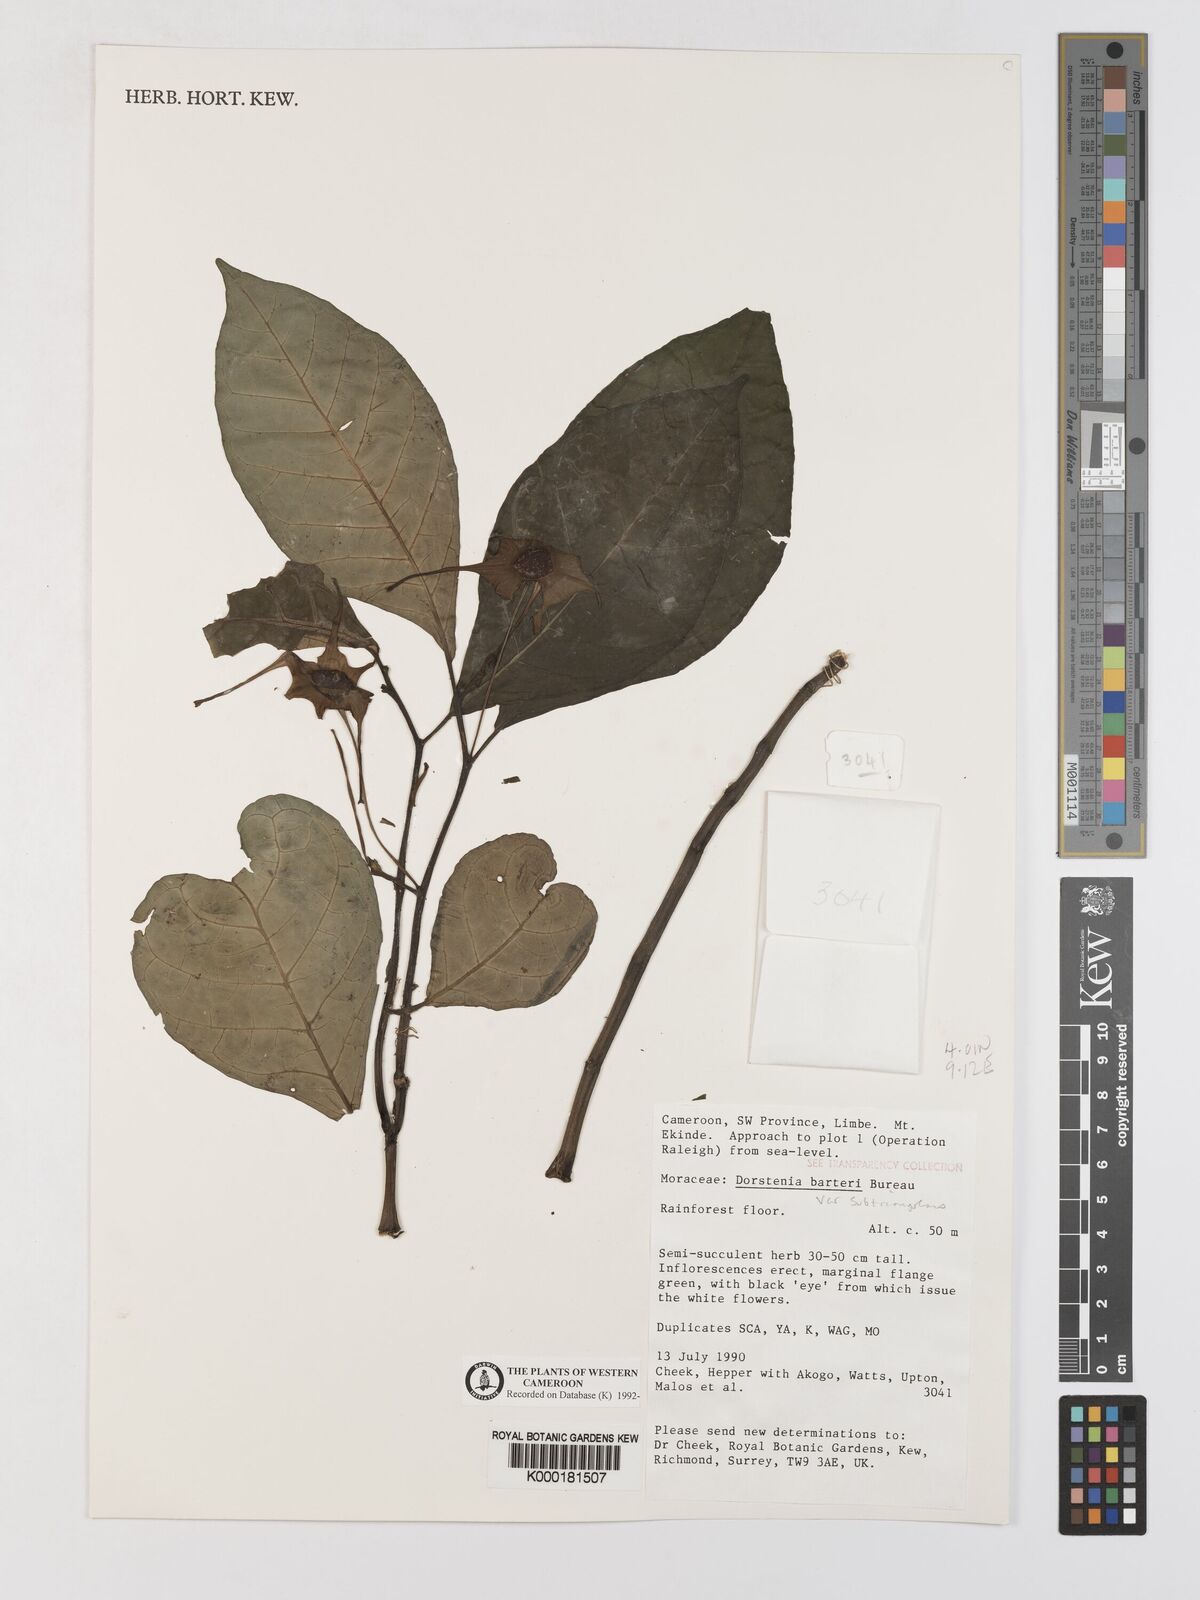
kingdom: Plantae
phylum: Tracheophyta
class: Magnoliopsida
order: Rosales
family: Moraceae
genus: Dorstenia
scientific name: Dorstenia barteri
